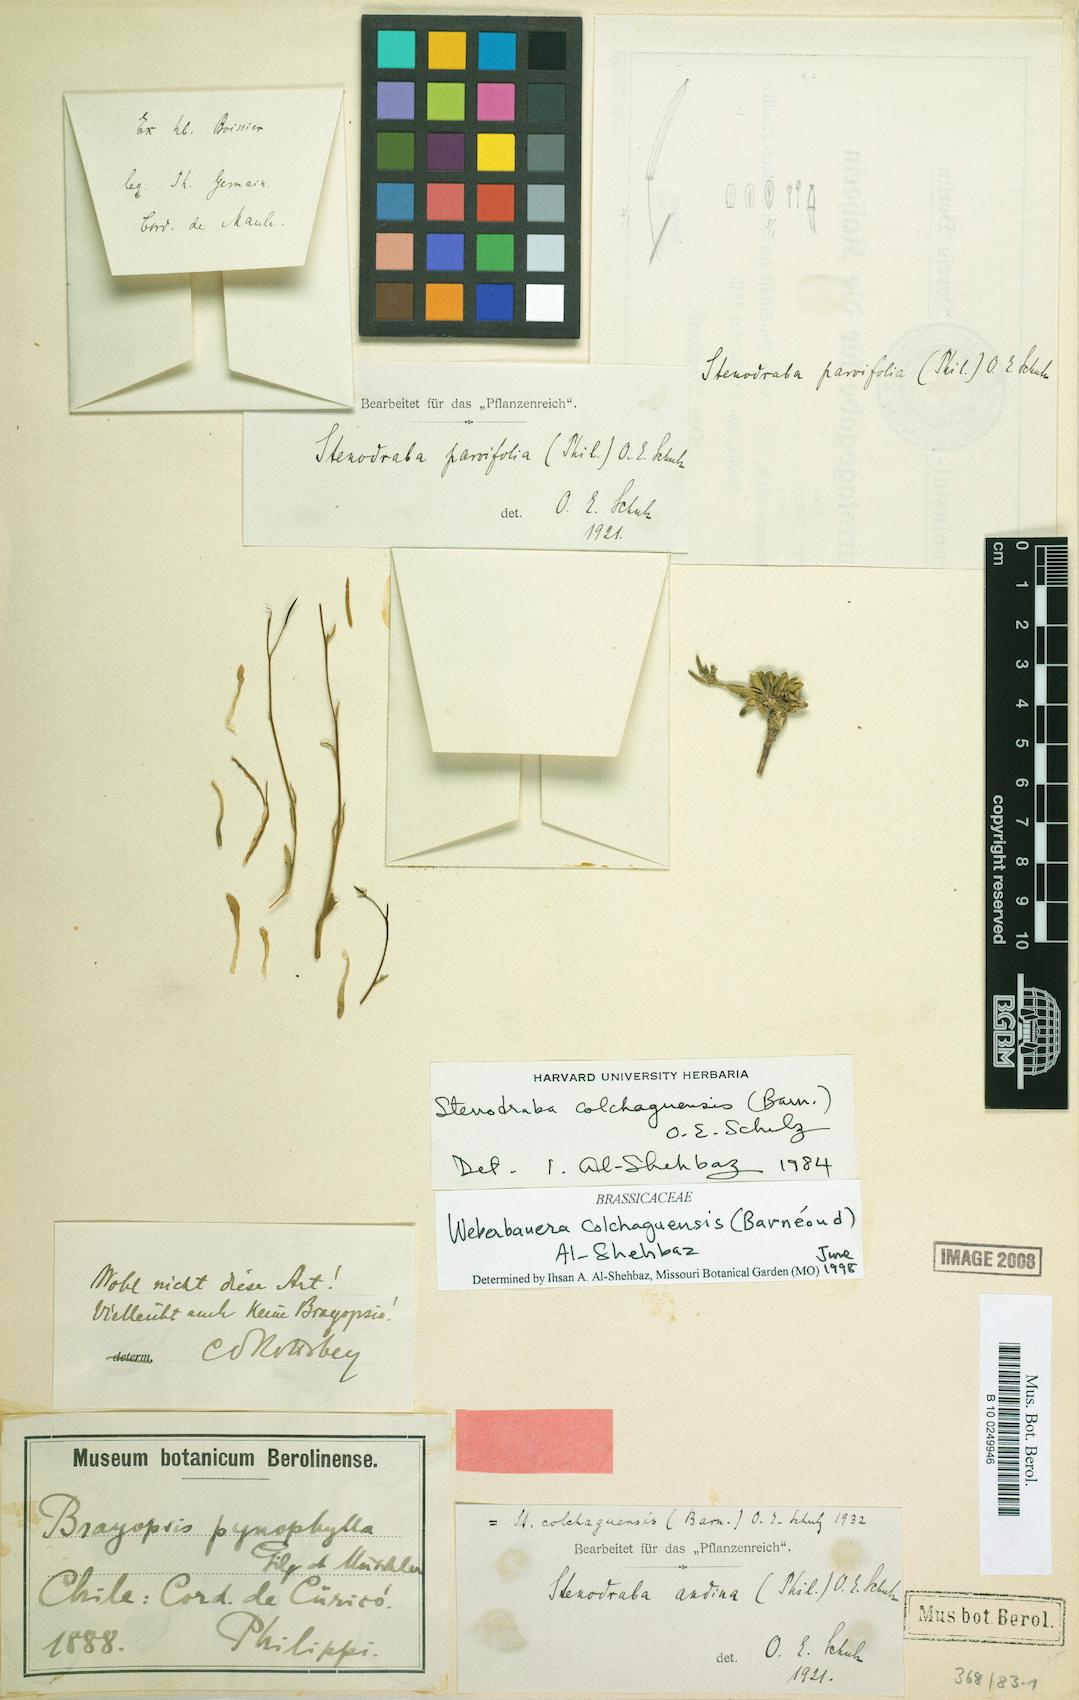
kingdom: Plantae
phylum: Tracheophyta
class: Magnoliopsida
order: Brassicales
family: Brassicaceae
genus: Stenodraba
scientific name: Stenodraba colchaguensis
